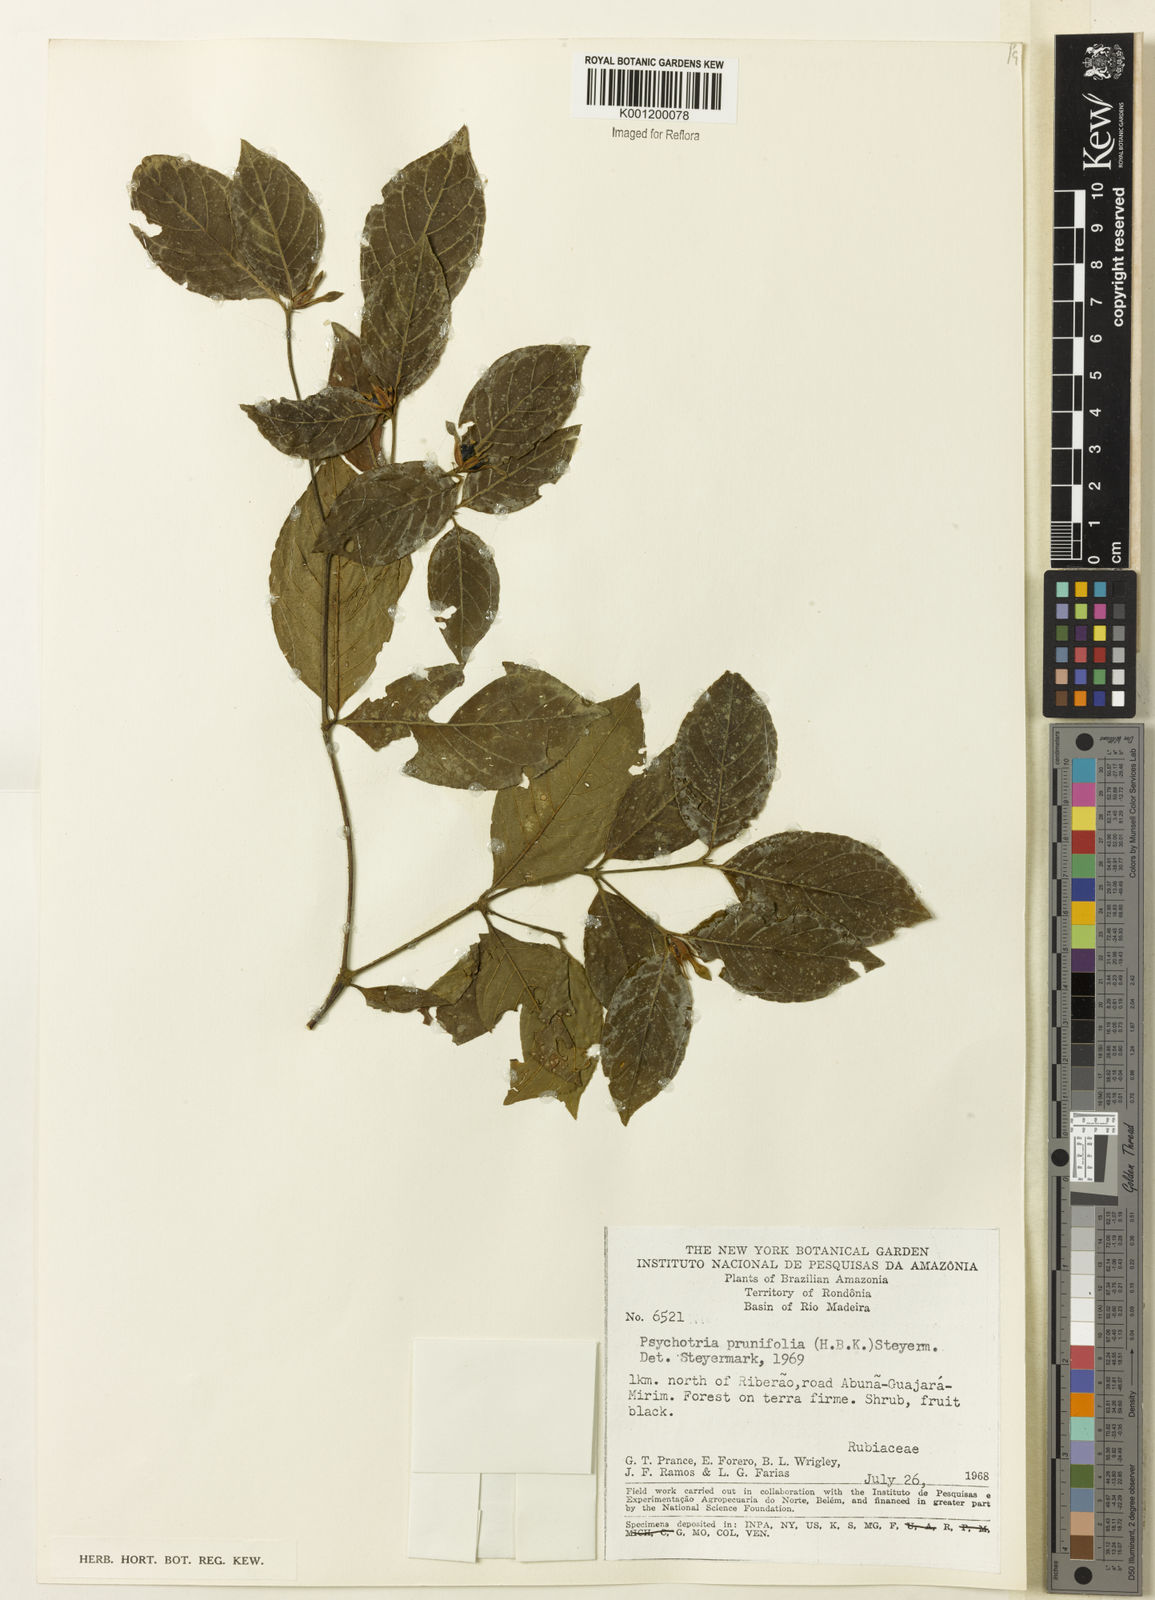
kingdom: Plantae
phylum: Tracheophyta
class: Magnoliopsida
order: Gentianales
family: Rubiaceae
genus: Palicourea
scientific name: Palicourea prunifolia
